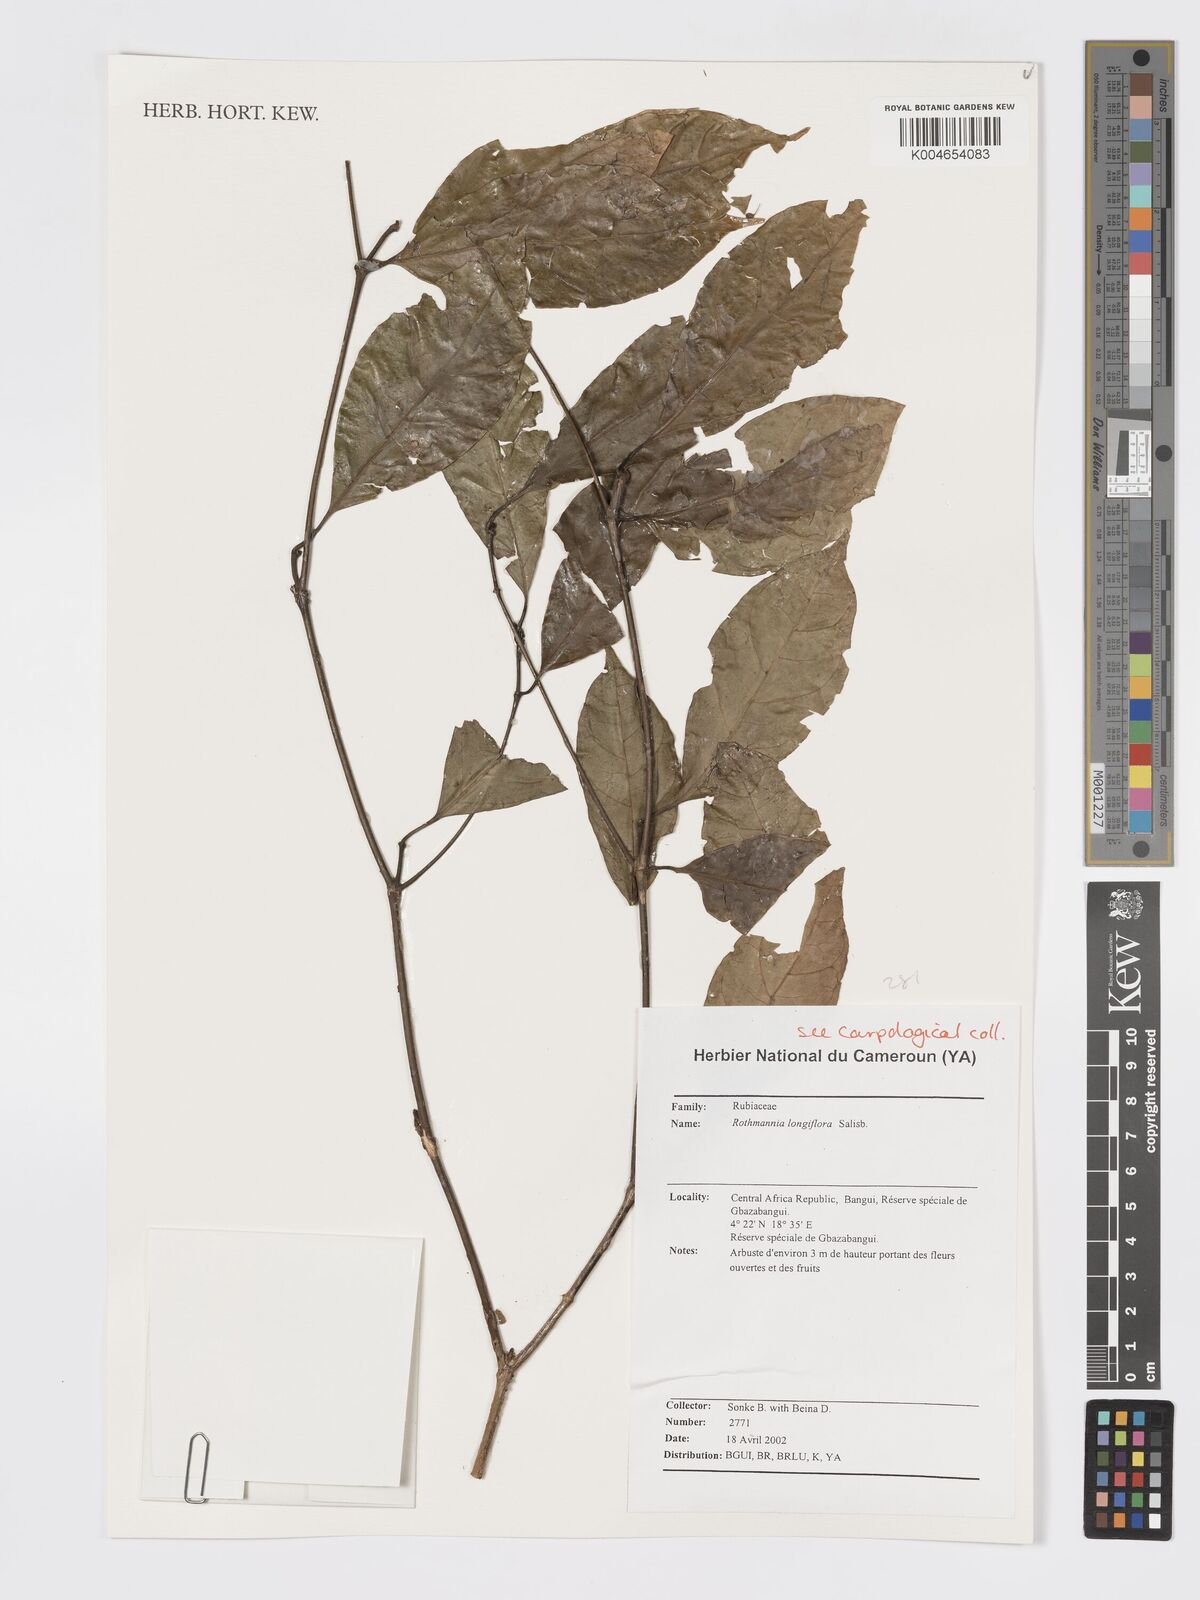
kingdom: Plantae
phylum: Tracheophyta
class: Magnoliopsida
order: Gentianales
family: Rubiaceae
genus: Rothmannia
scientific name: Rothmannia longiflora
